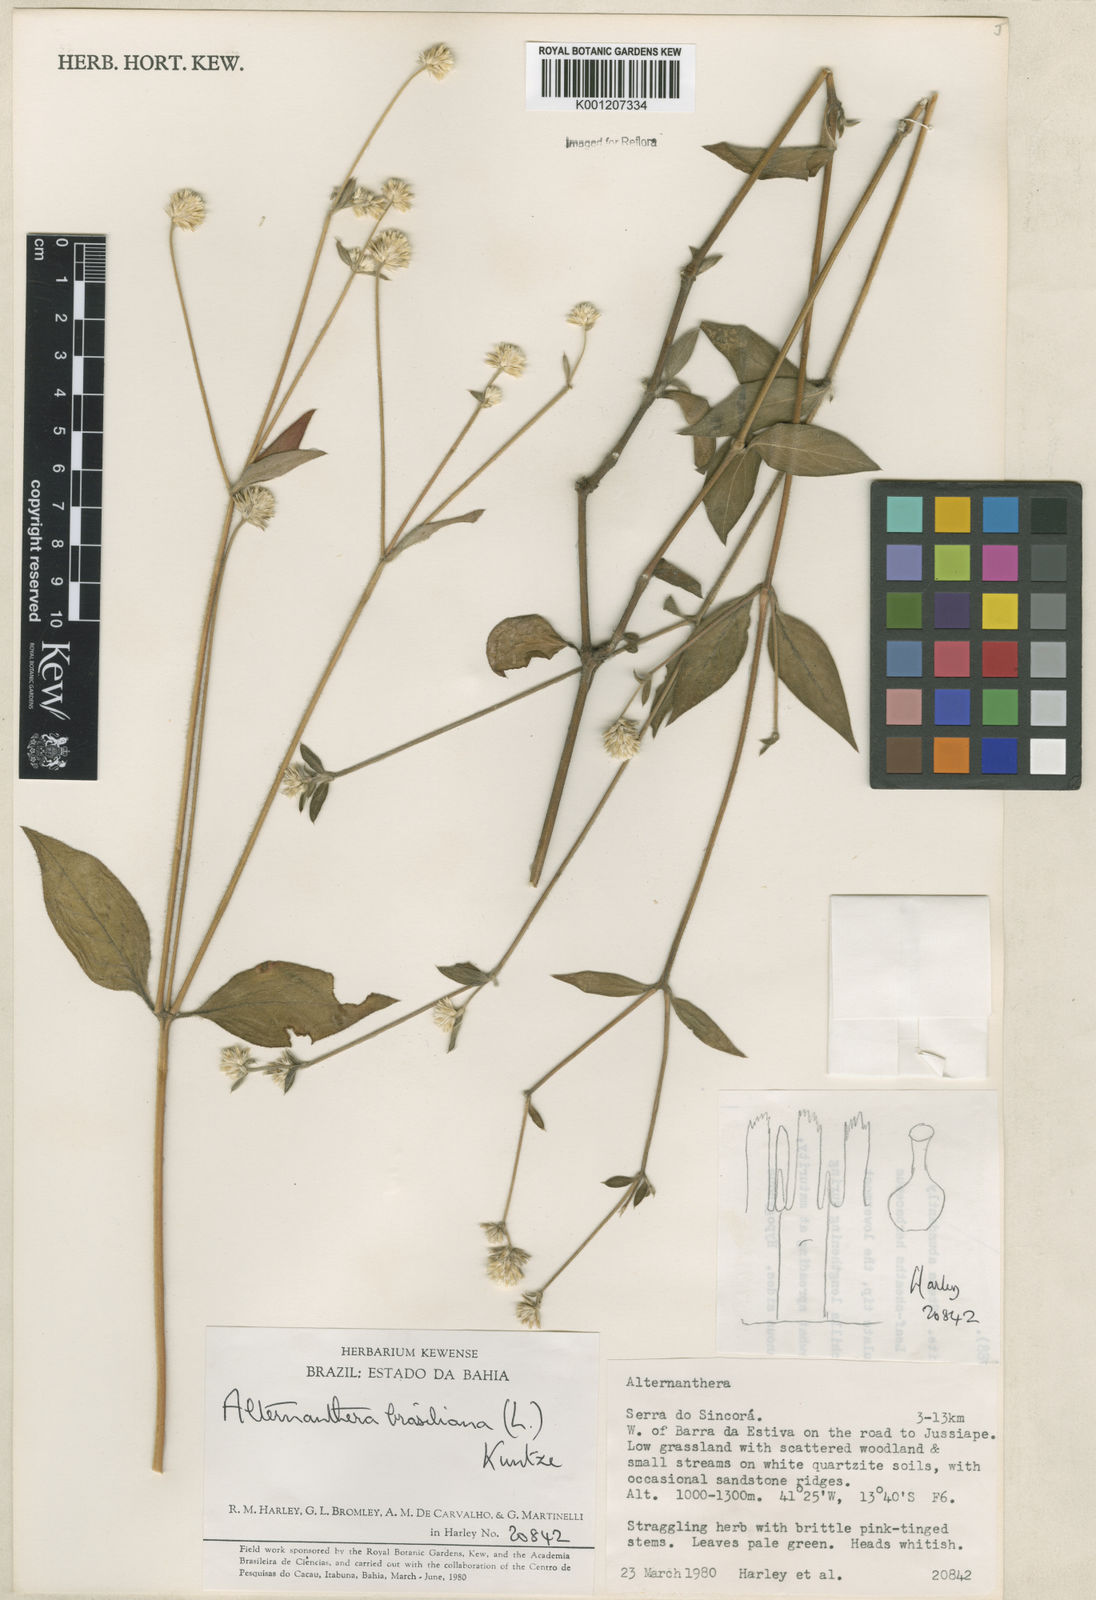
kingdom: Plantae
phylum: Tracheophyta
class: Magnoliopsida
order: Caryophyllales
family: Amaranthaceae
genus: Alternanthera
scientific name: Alternanthera brasiliana
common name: Brazilian joyweed
